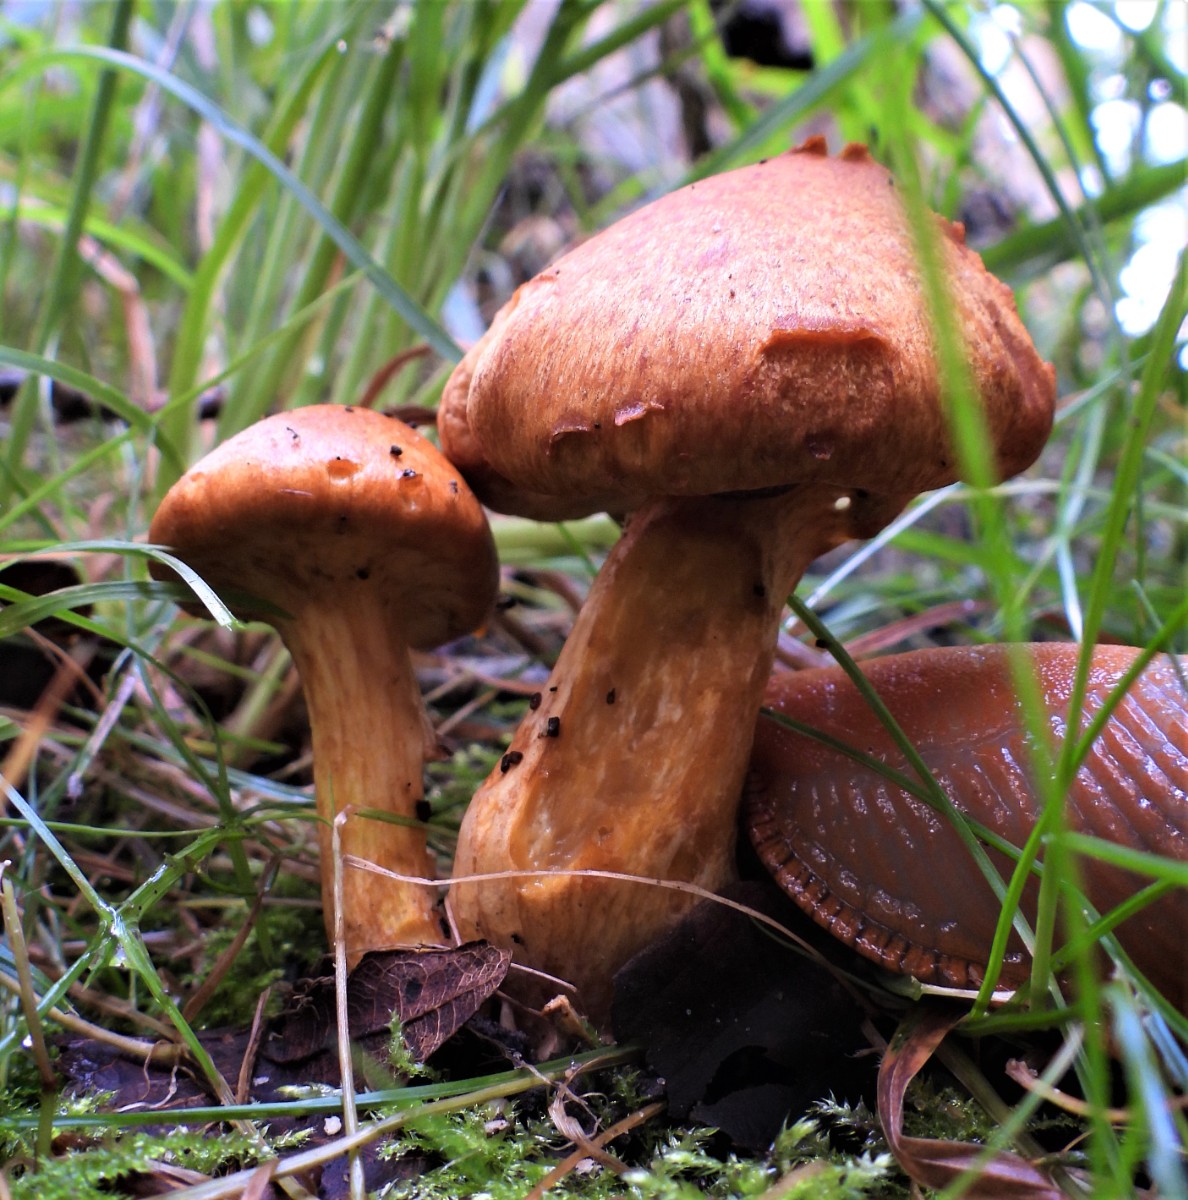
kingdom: Fungi
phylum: Basidiomycota
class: Agaricomycetes
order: Agaricales
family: Hymenogastraceae
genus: Gymnopilus
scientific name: Gymnopilus spectabilis
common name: fibret flammehat
